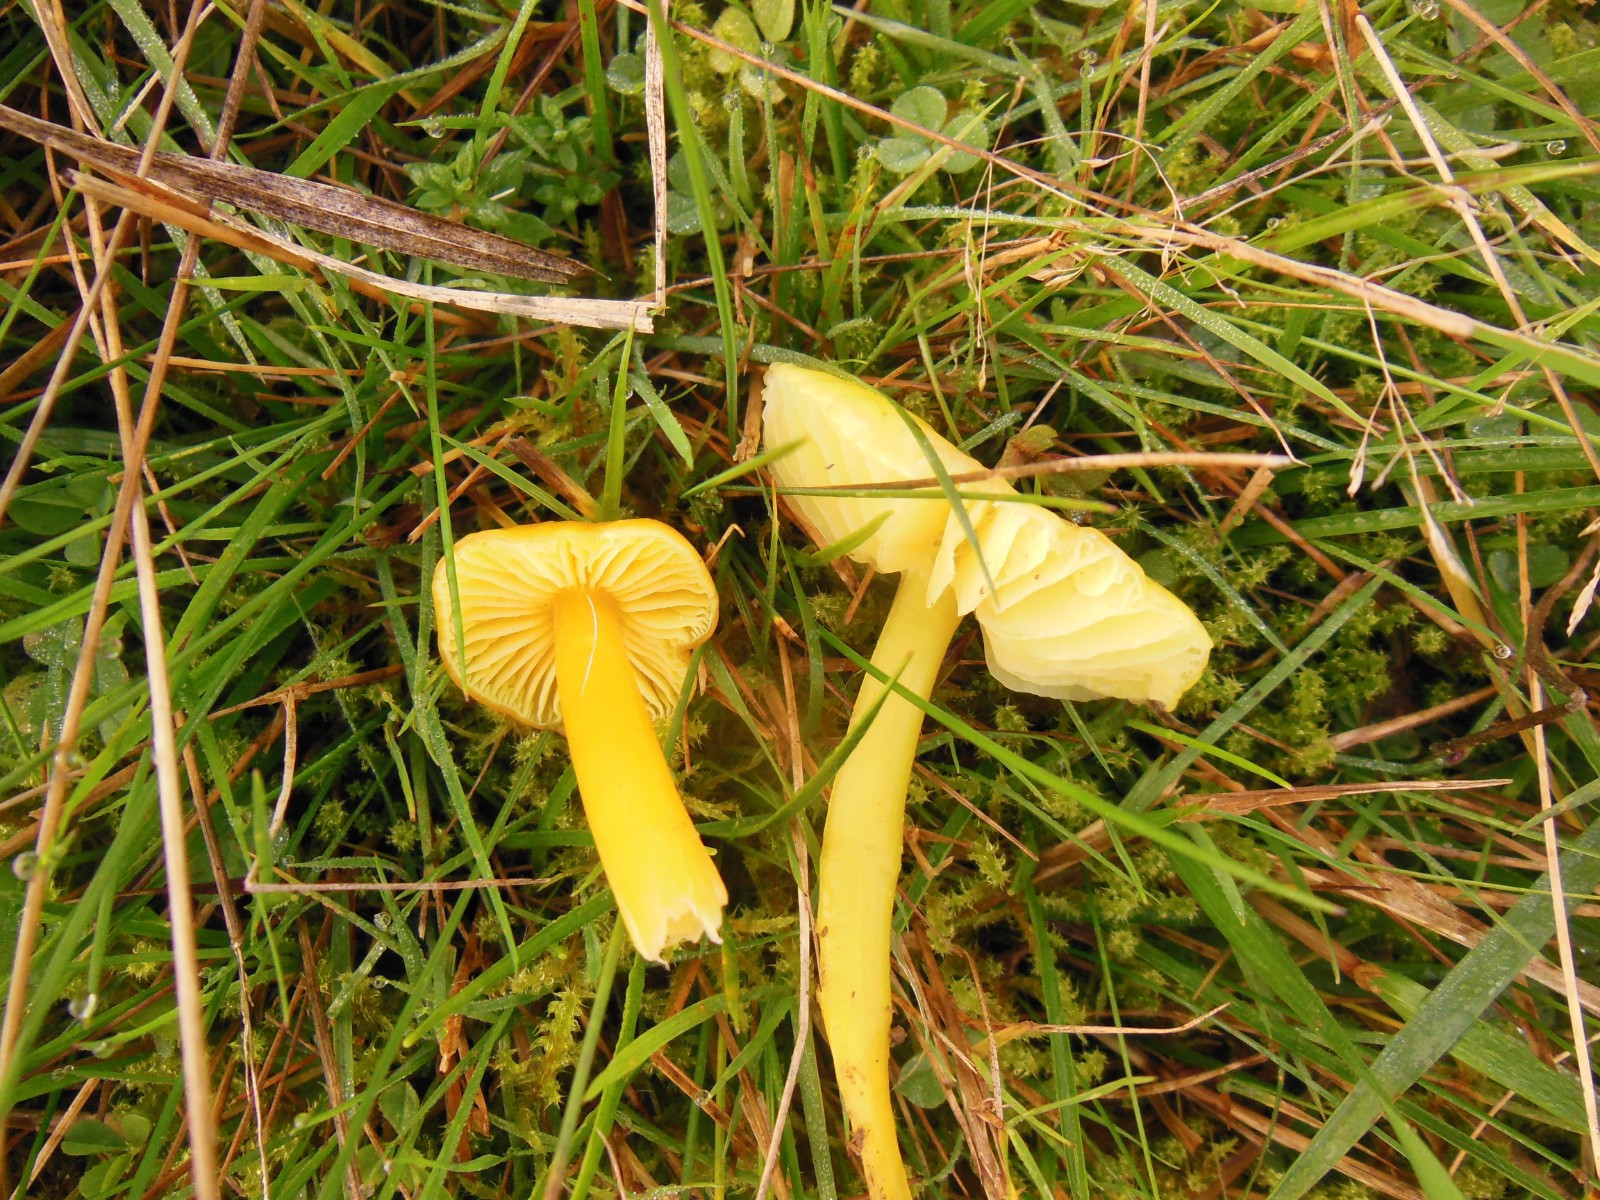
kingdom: Fungi
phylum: Basidiomycota
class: Agaricomycetes
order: Agaricales
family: Hygrophoraceae
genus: Hygrocybe
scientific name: Hygrocybe chlorophana
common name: gul vokshat
